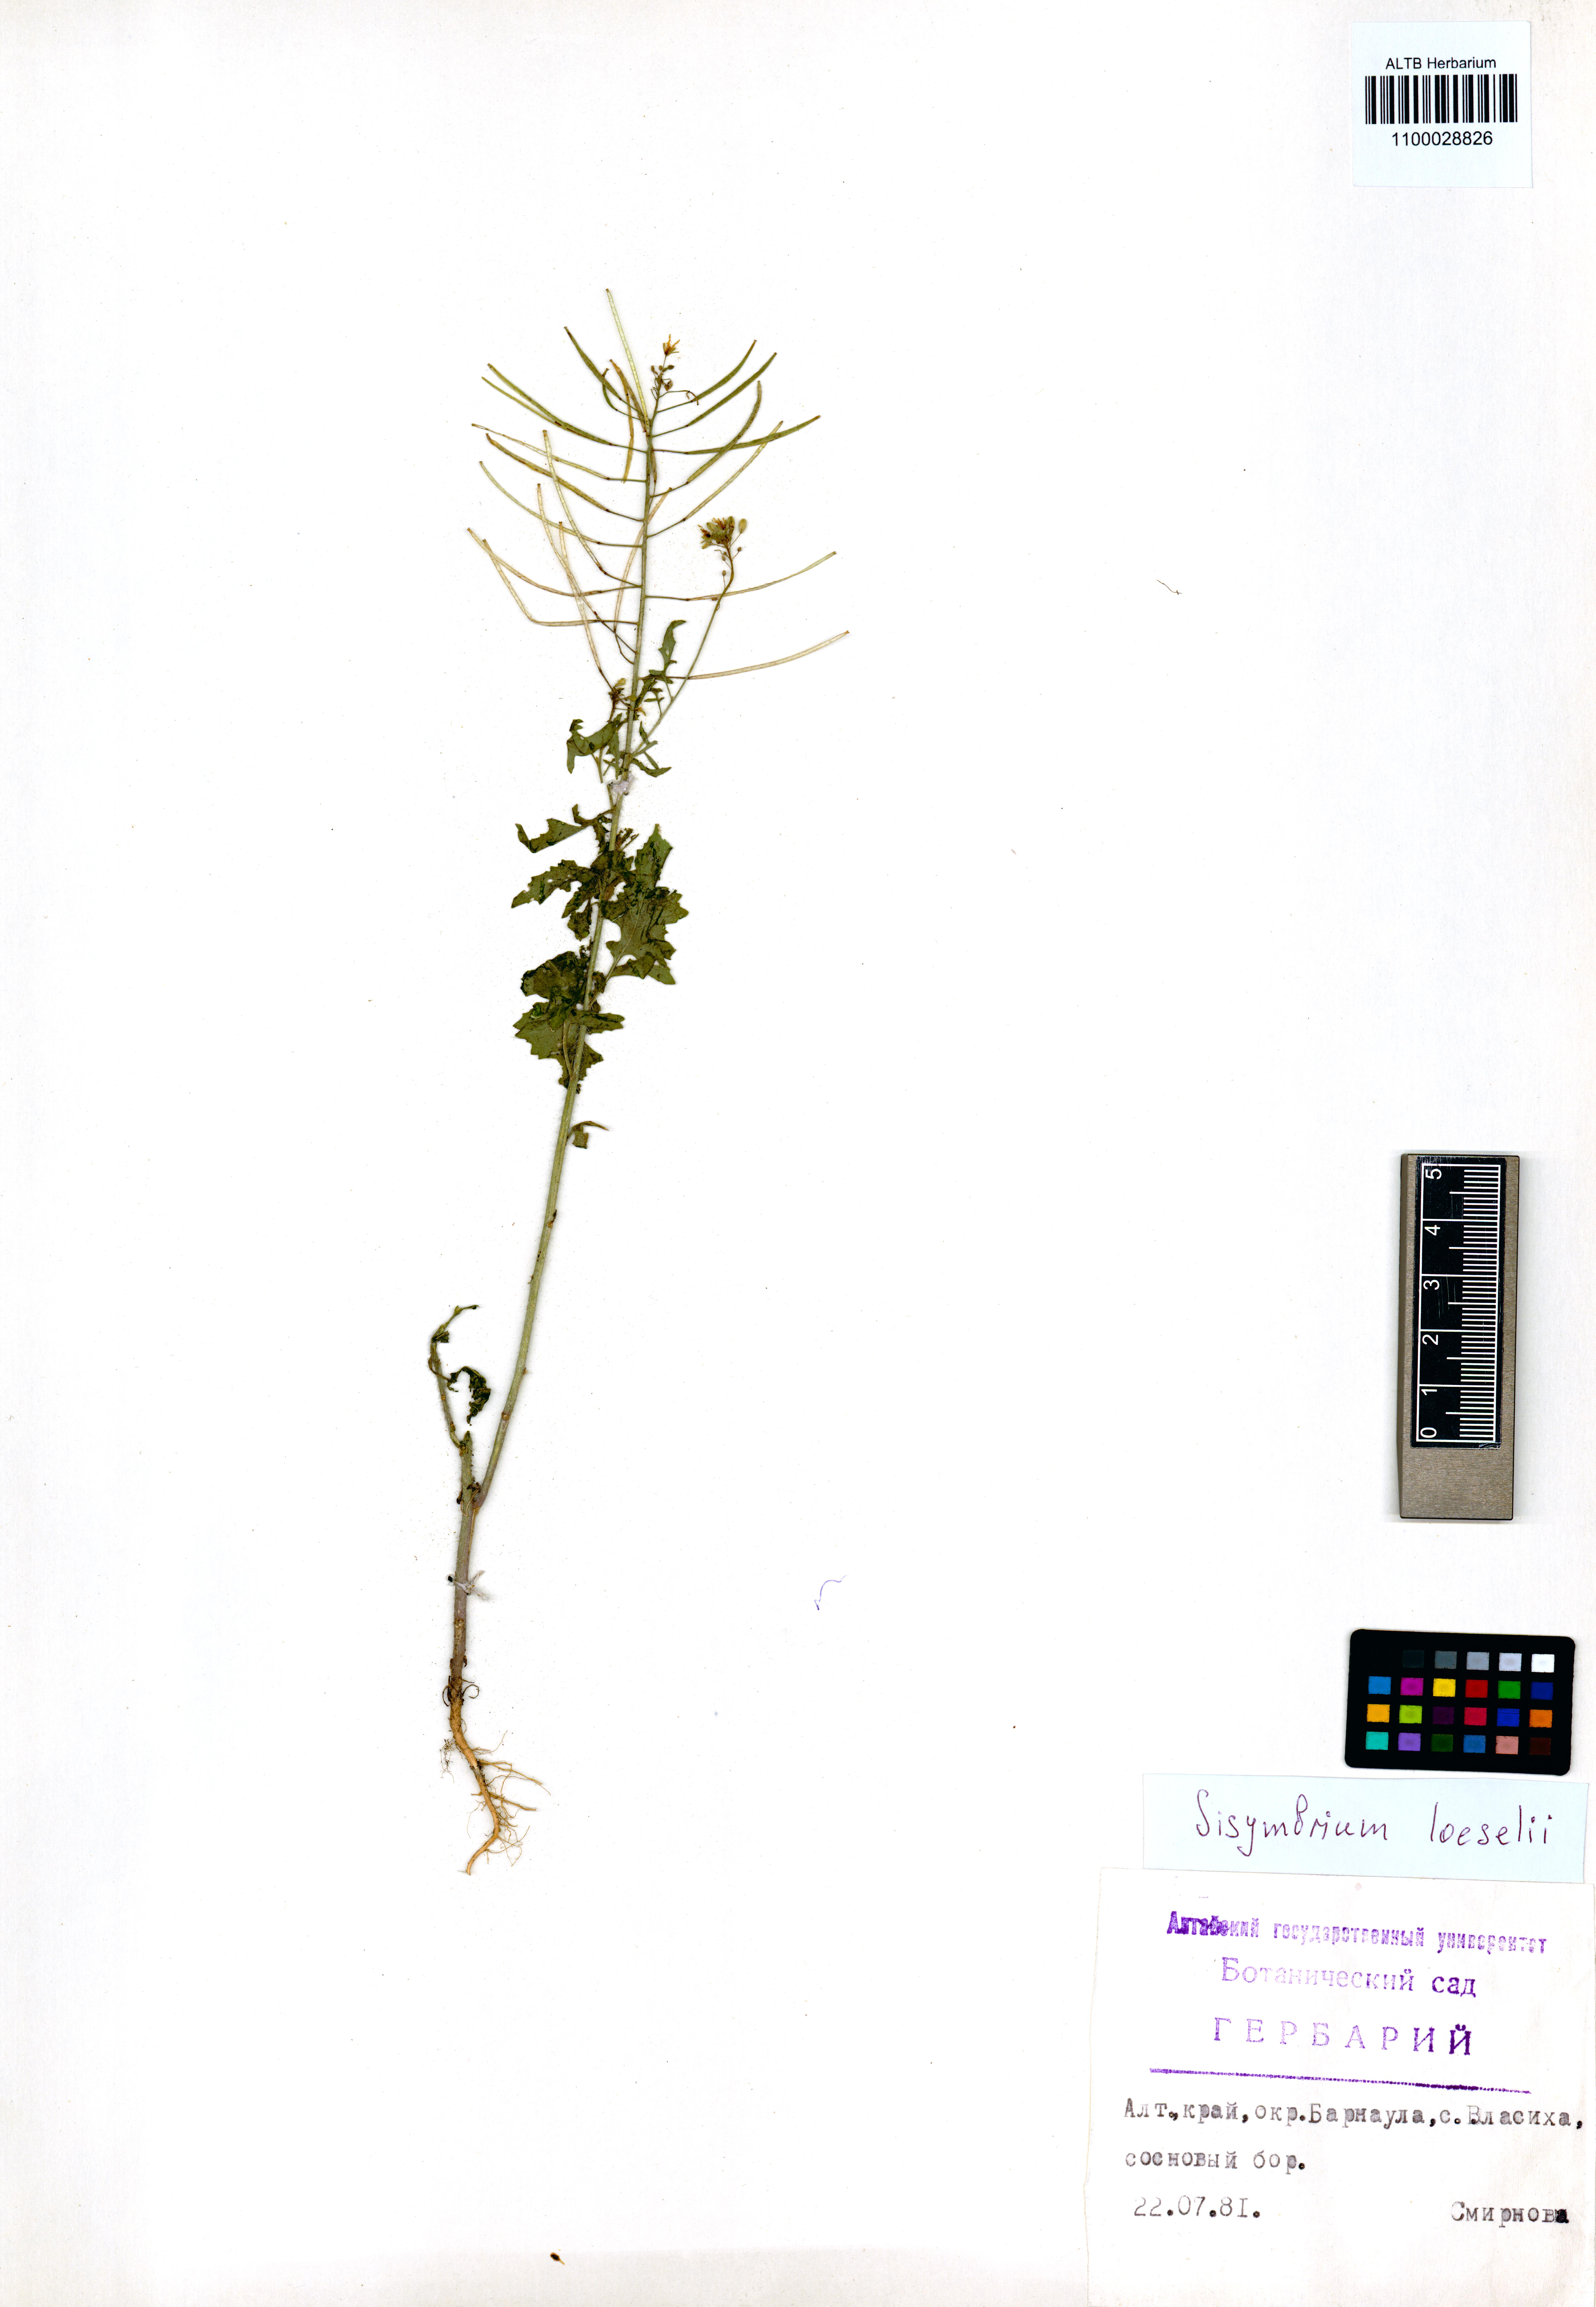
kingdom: Plantae
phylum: Tracheophyta
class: Magnoliopsida
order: Brassicales
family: Brassicaceae
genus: Sisymbrium
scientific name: Sisymbrium loeselii
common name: False london-rocket
